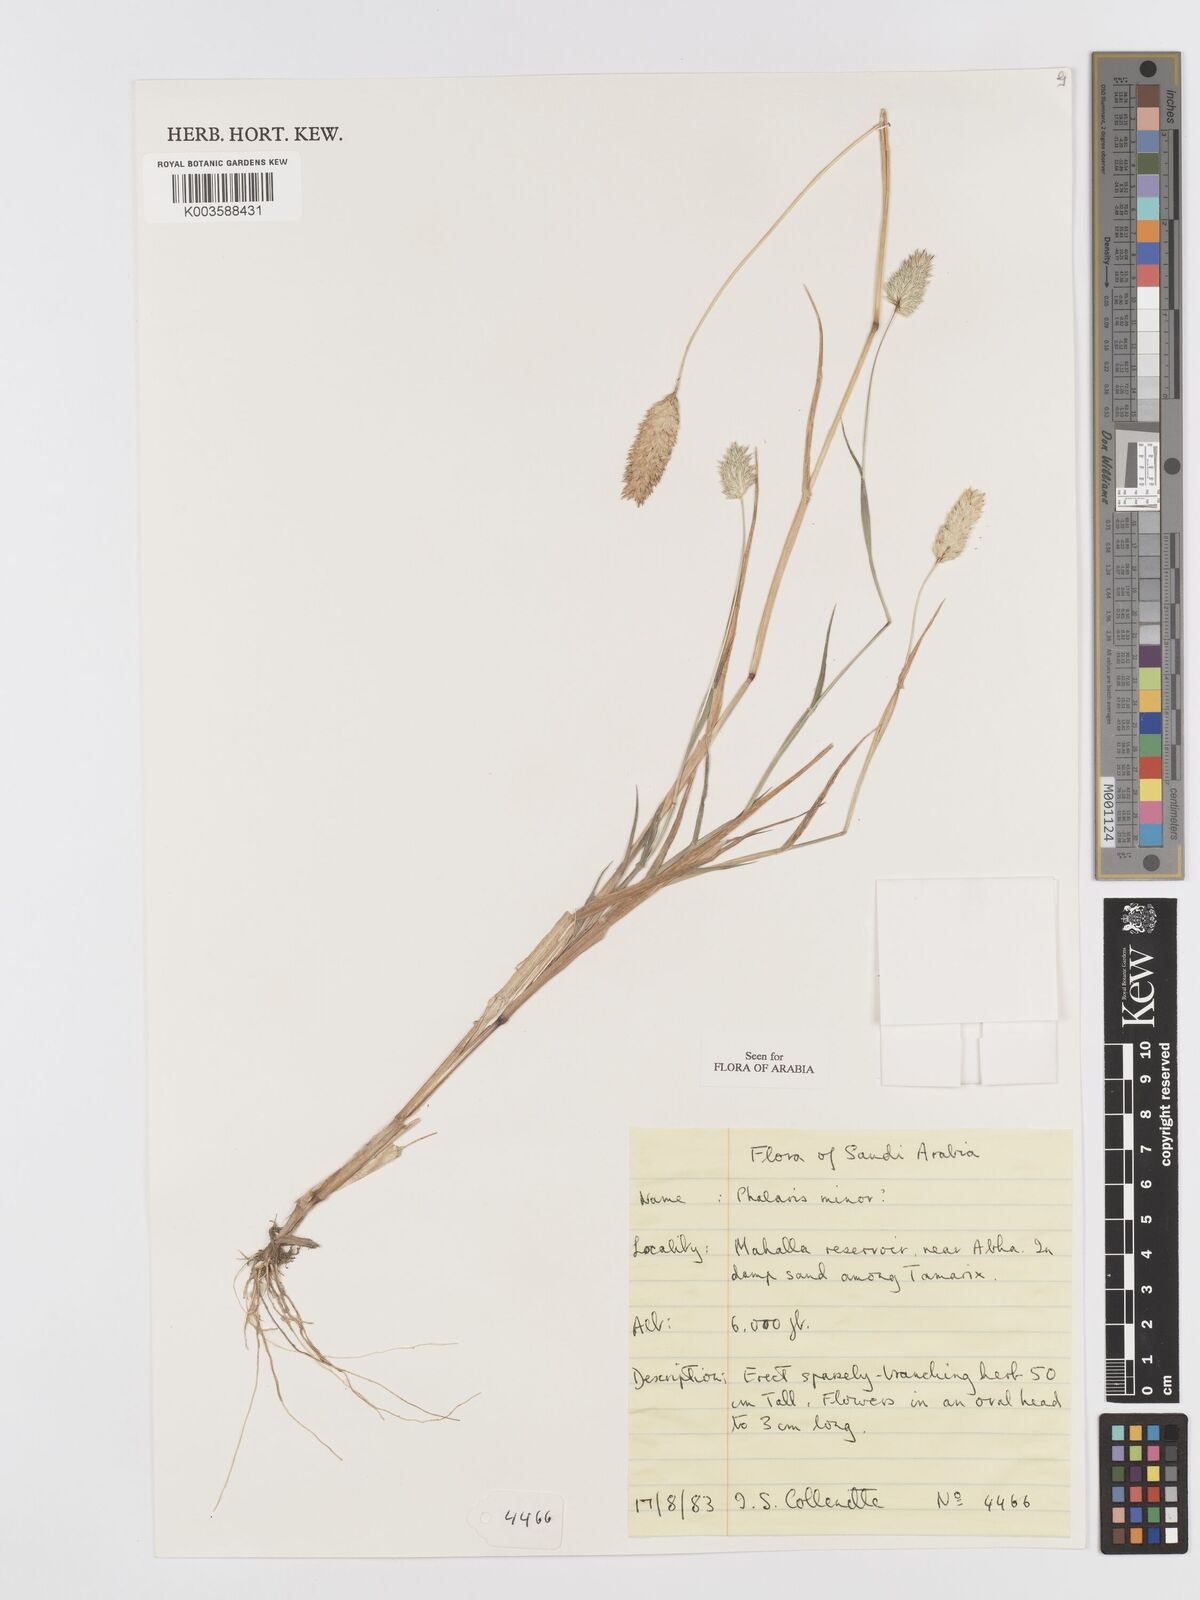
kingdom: Plantae
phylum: Tracheophyta
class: Liliopsida
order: Poales
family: Poaceae
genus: Phalaris
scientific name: Phalaris minor
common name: Littleseed canarygrass
